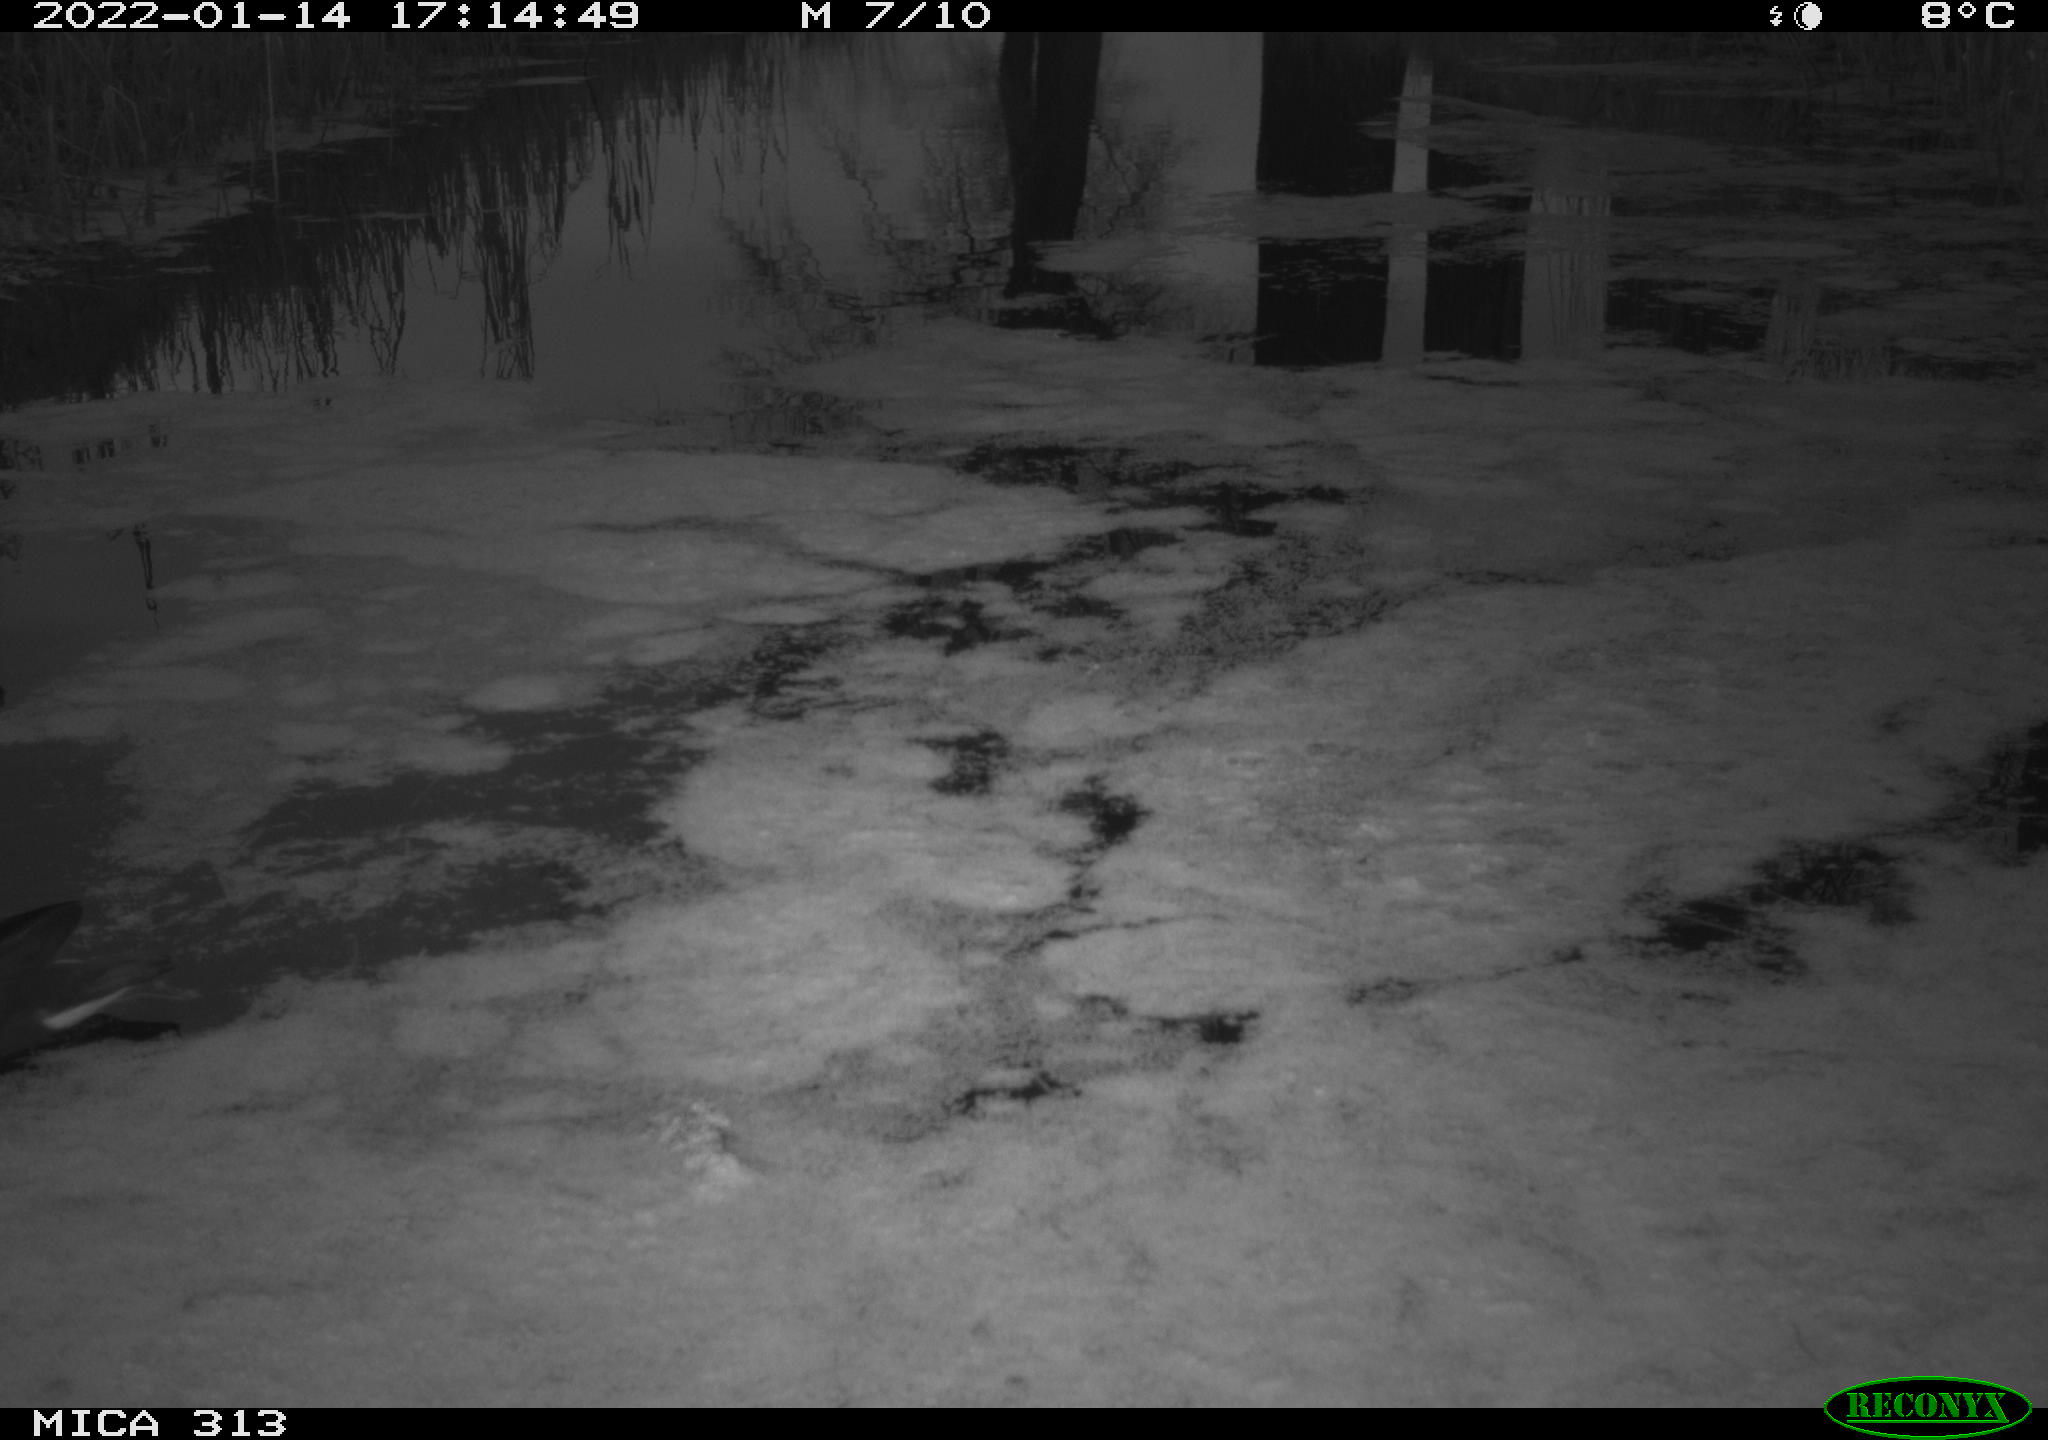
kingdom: Animalia
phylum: Chordata
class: Aves
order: Gruiformes
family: Rallidae
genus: Gallinula
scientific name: Gallinula chloropus
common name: Common moorhen
